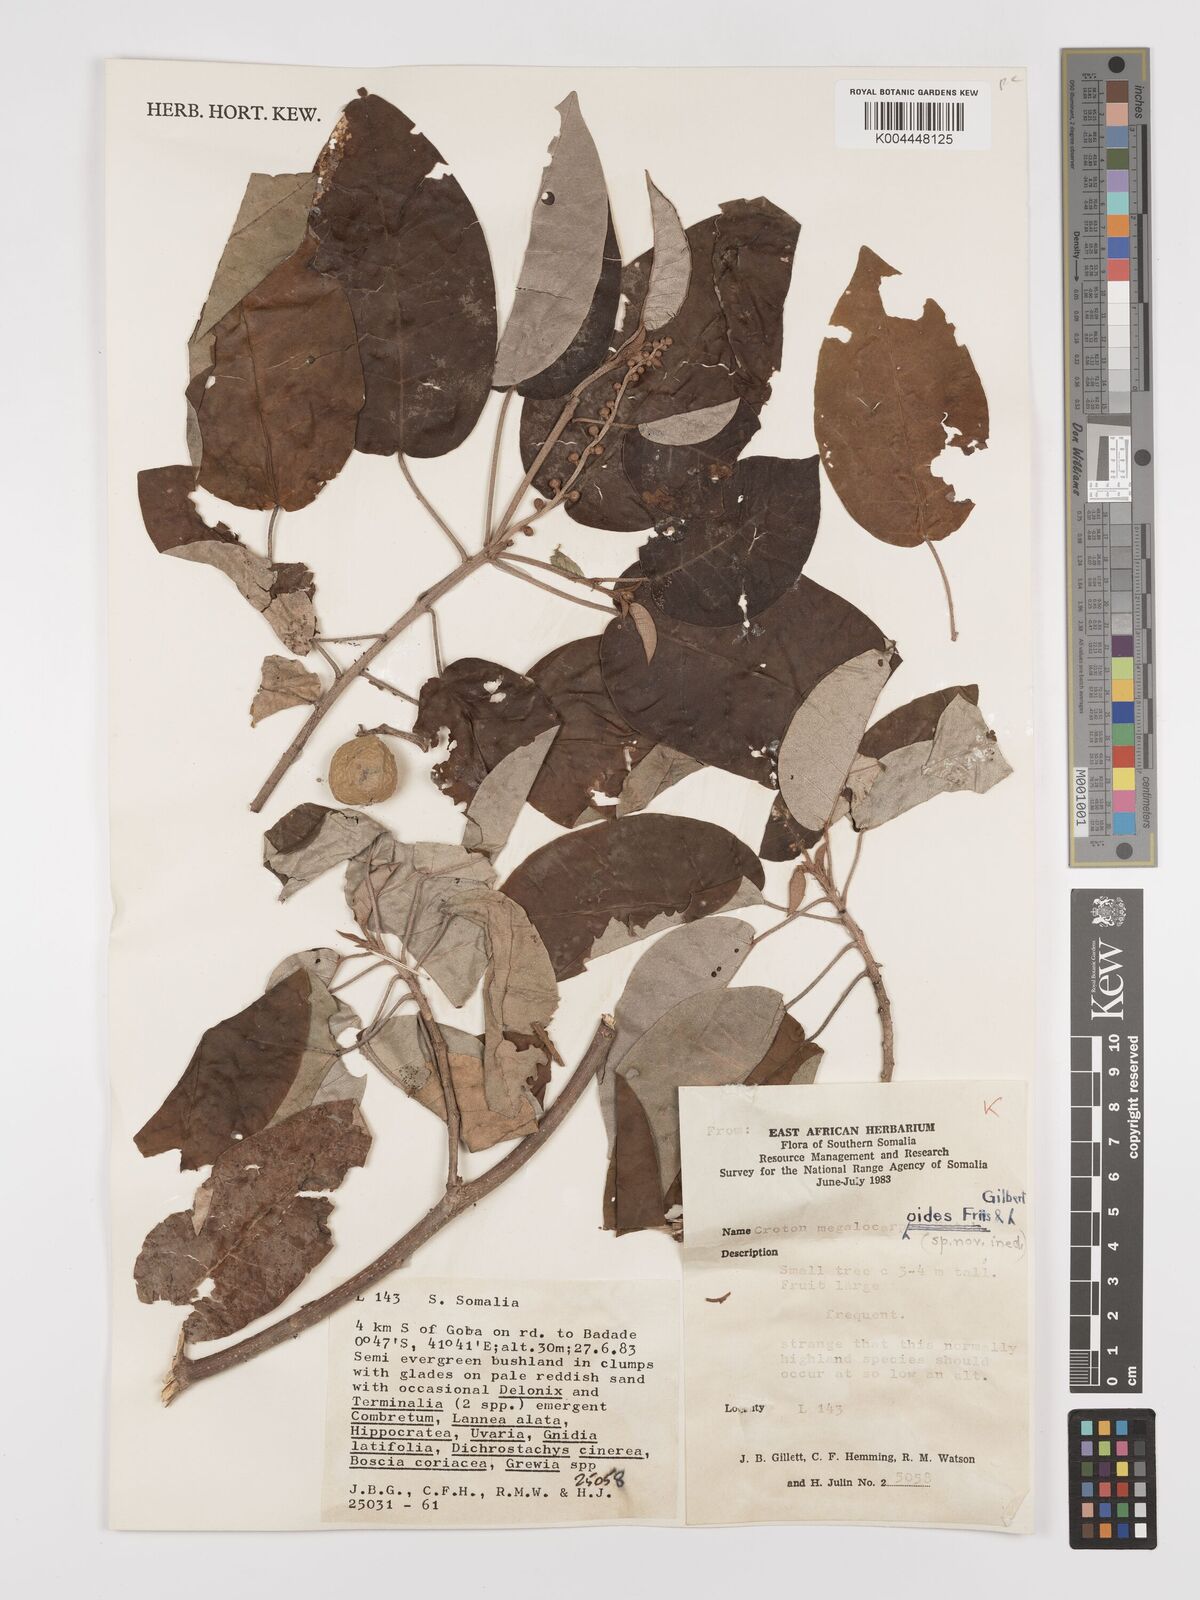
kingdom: Plantae
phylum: Tracheophyta
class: Magnoliopsida
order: Malpighiales
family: Euphorbiaceae
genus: Croton
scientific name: Croton megalocarpoides
